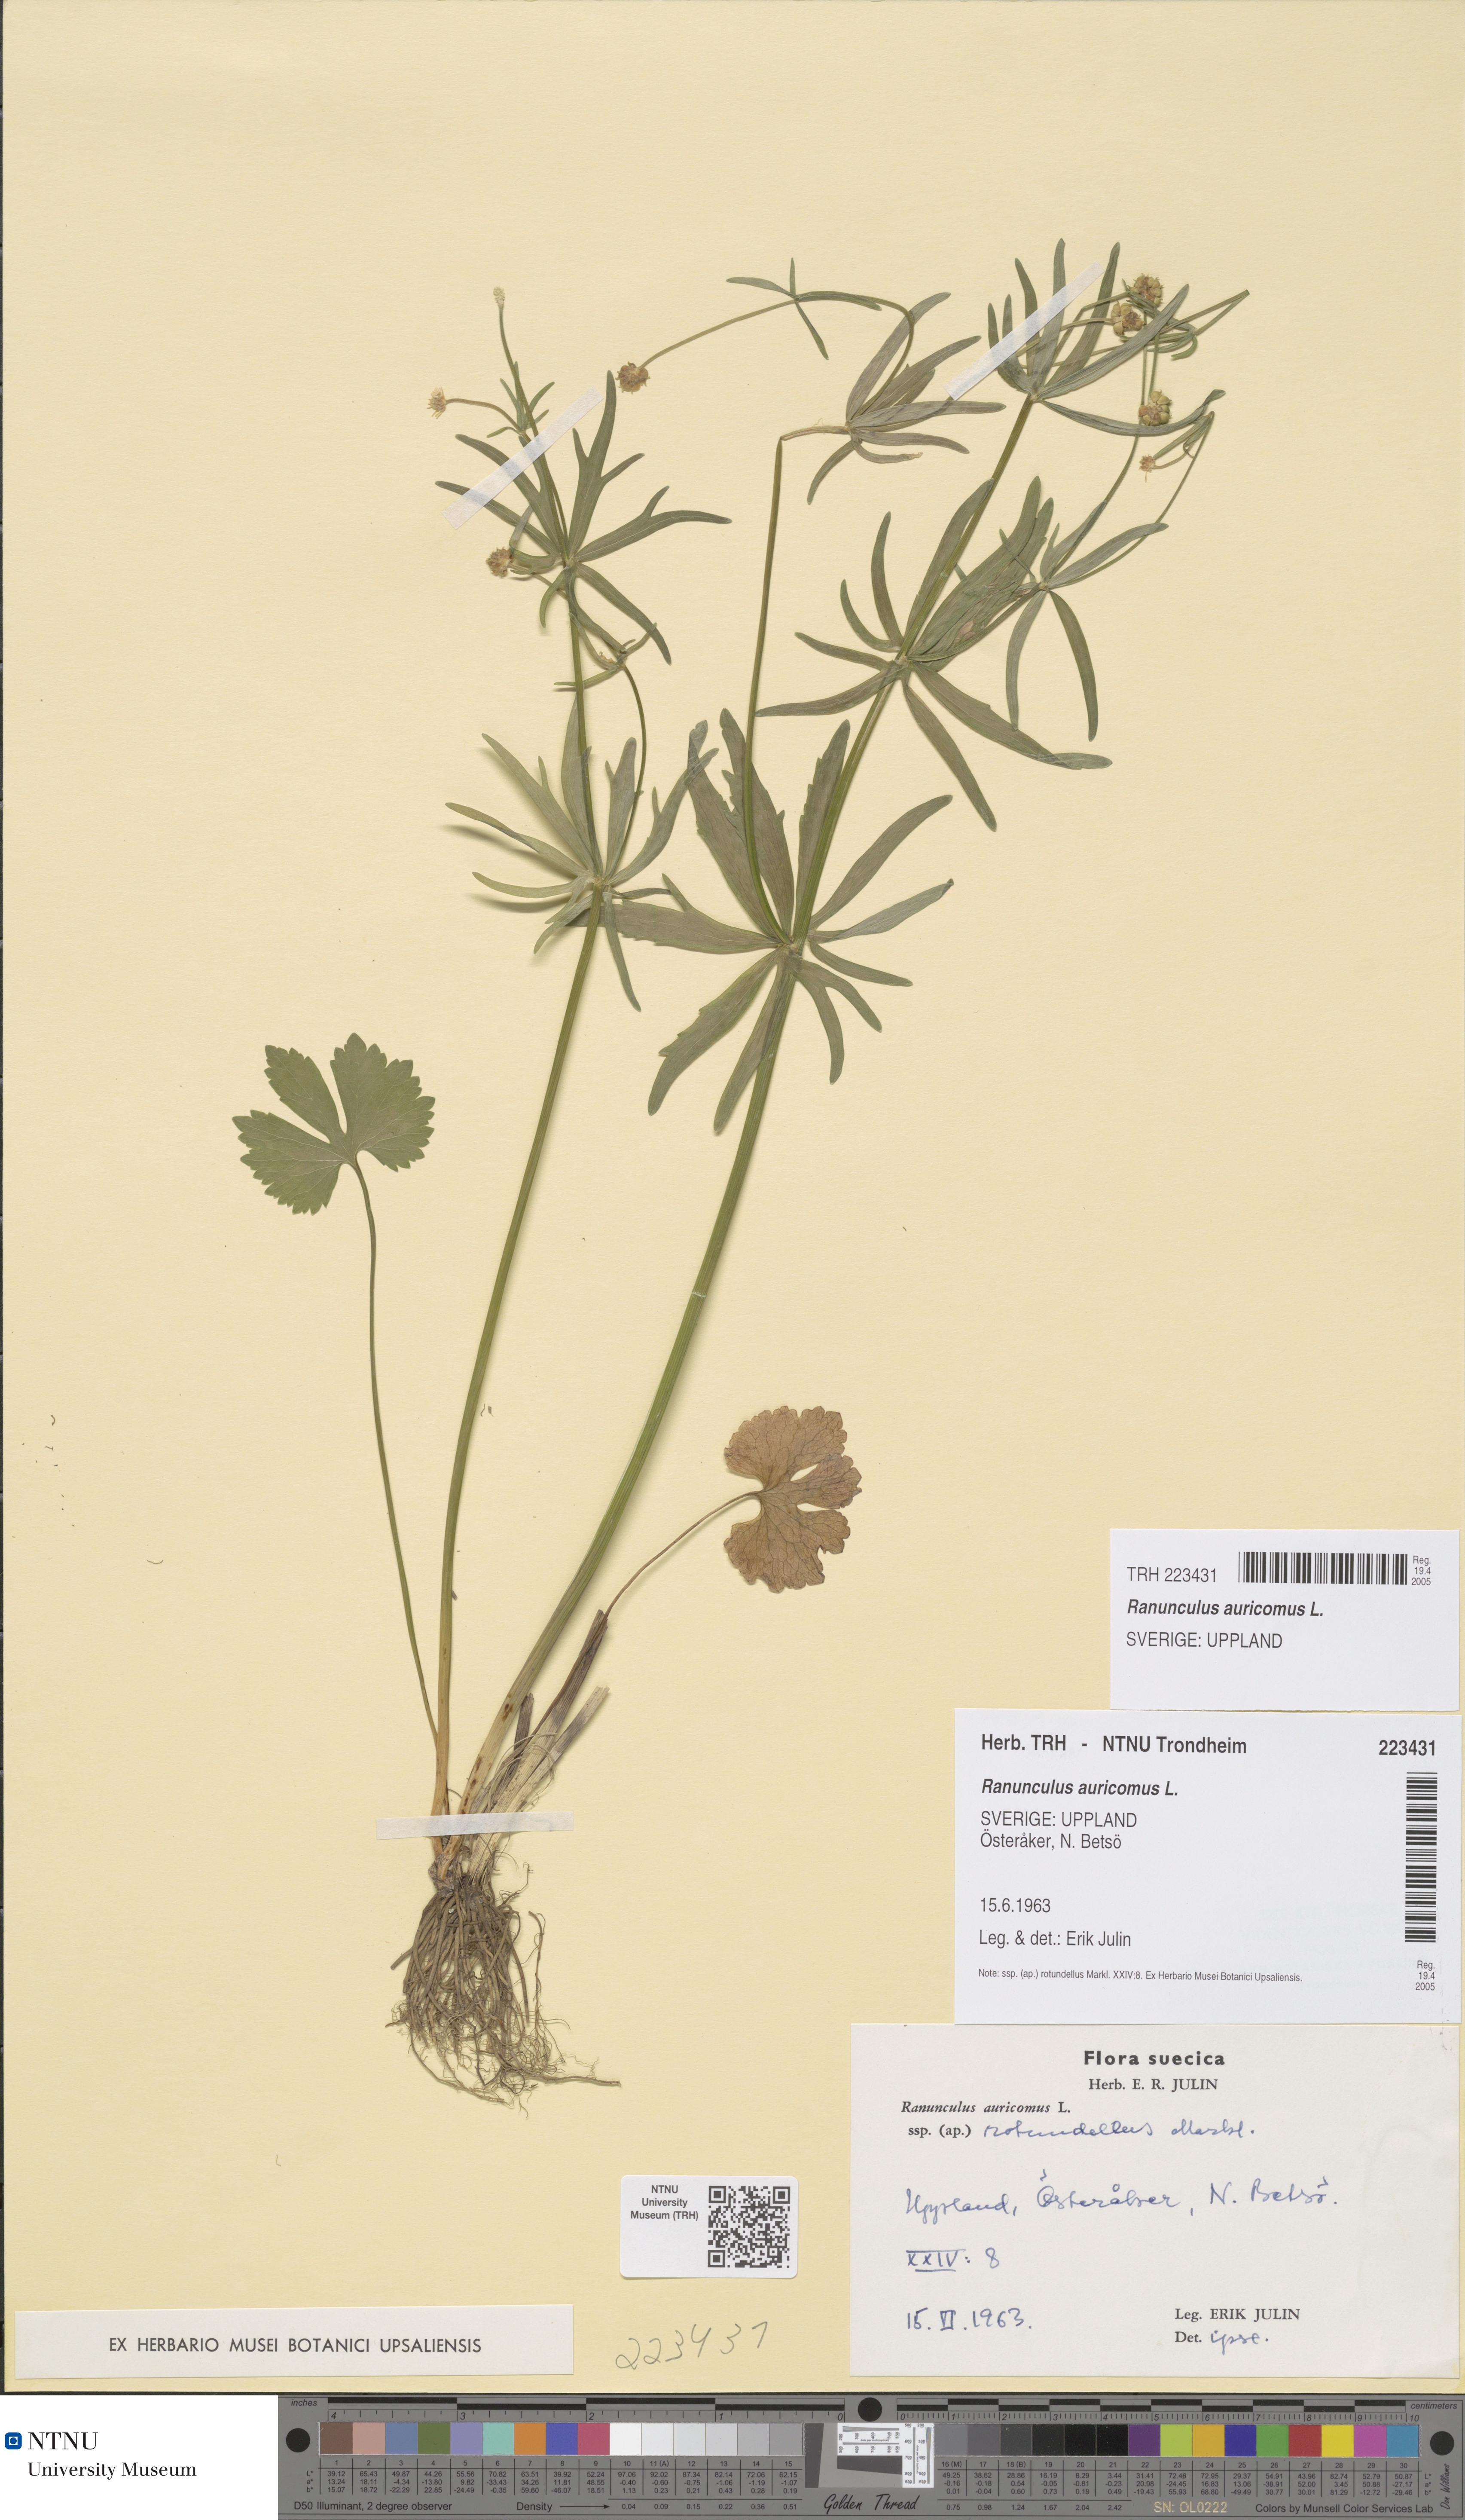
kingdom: Plantae
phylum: Tracheophyta
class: Magnoliopsida
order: Ranunculales
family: Ranunculaceae
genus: Ranunculus
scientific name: Ranunculus auricomus
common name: Goldilocks buttercup
